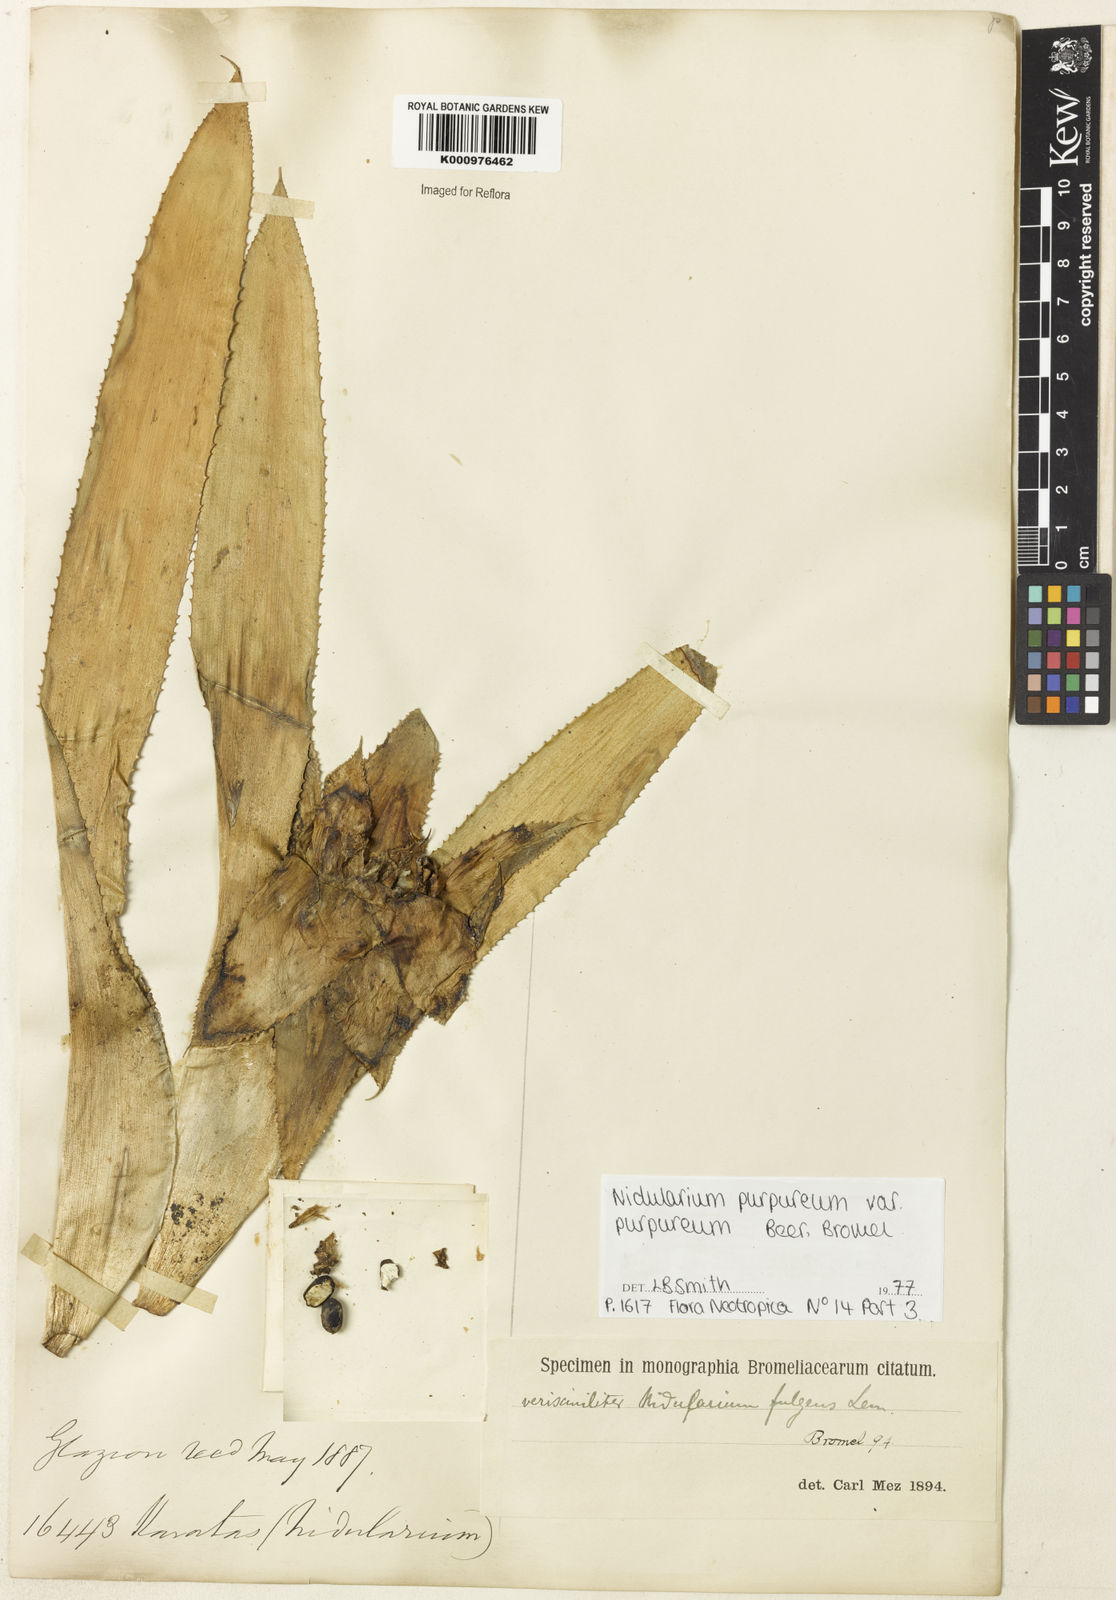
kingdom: Plantae
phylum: Tracheophyta
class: Liliopsida
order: Poales
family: Bromeliaceae
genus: Nidularium
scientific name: Nidularium purpureum
